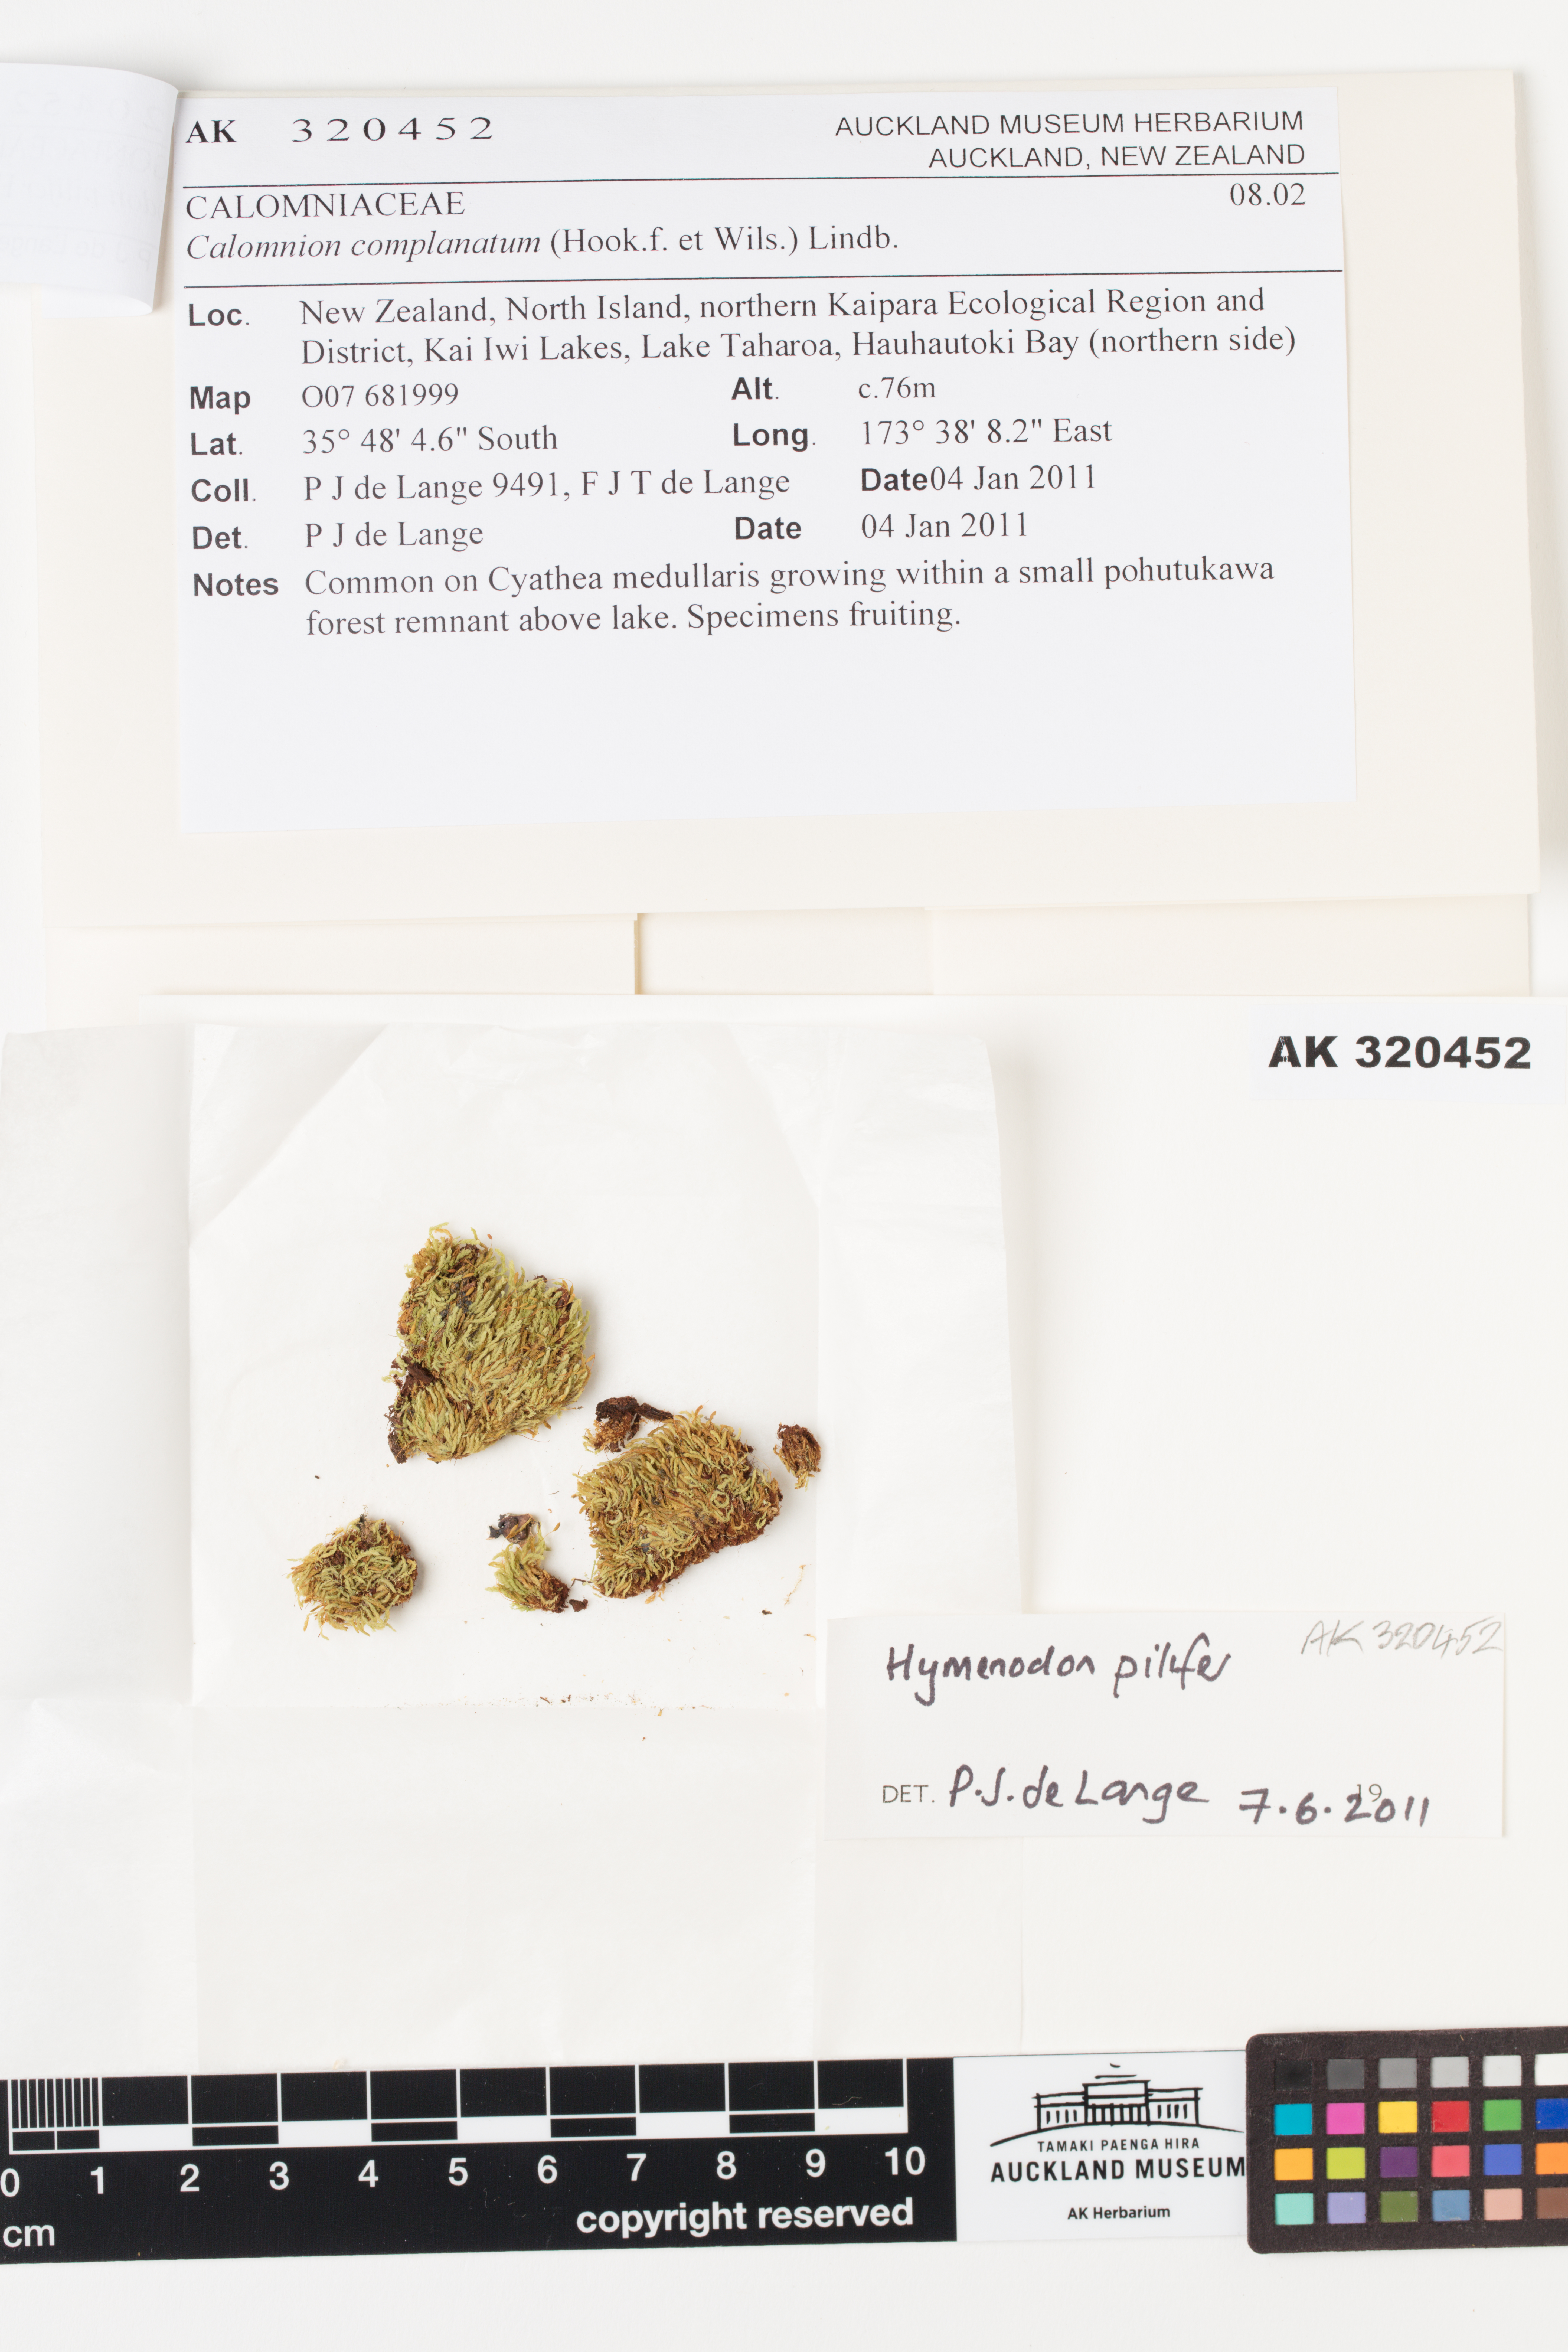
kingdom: Plantae
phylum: Bryophyta
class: Bryopsida
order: Orthodontiales
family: Orthodontiaceae
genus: Hymenodon
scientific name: Hymenodon pilifer
